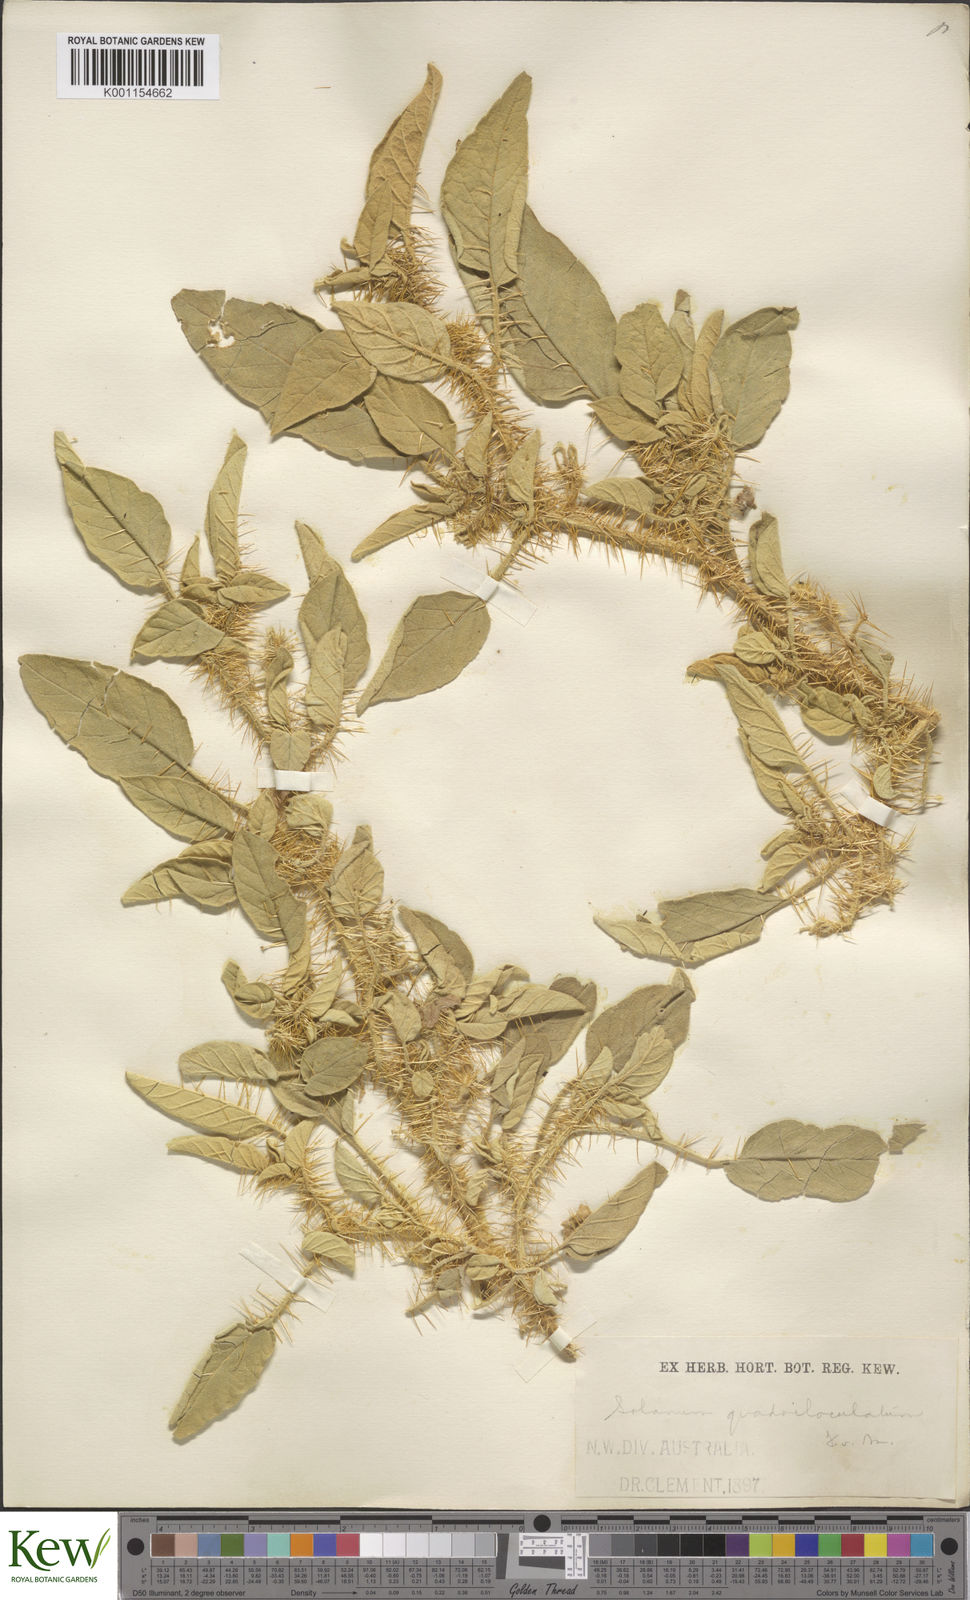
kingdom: Plantae
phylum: Tracheophyta
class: Magnoliopsida
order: Solanales
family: Solanaceae
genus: Solanum
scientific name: Solanum horridum
